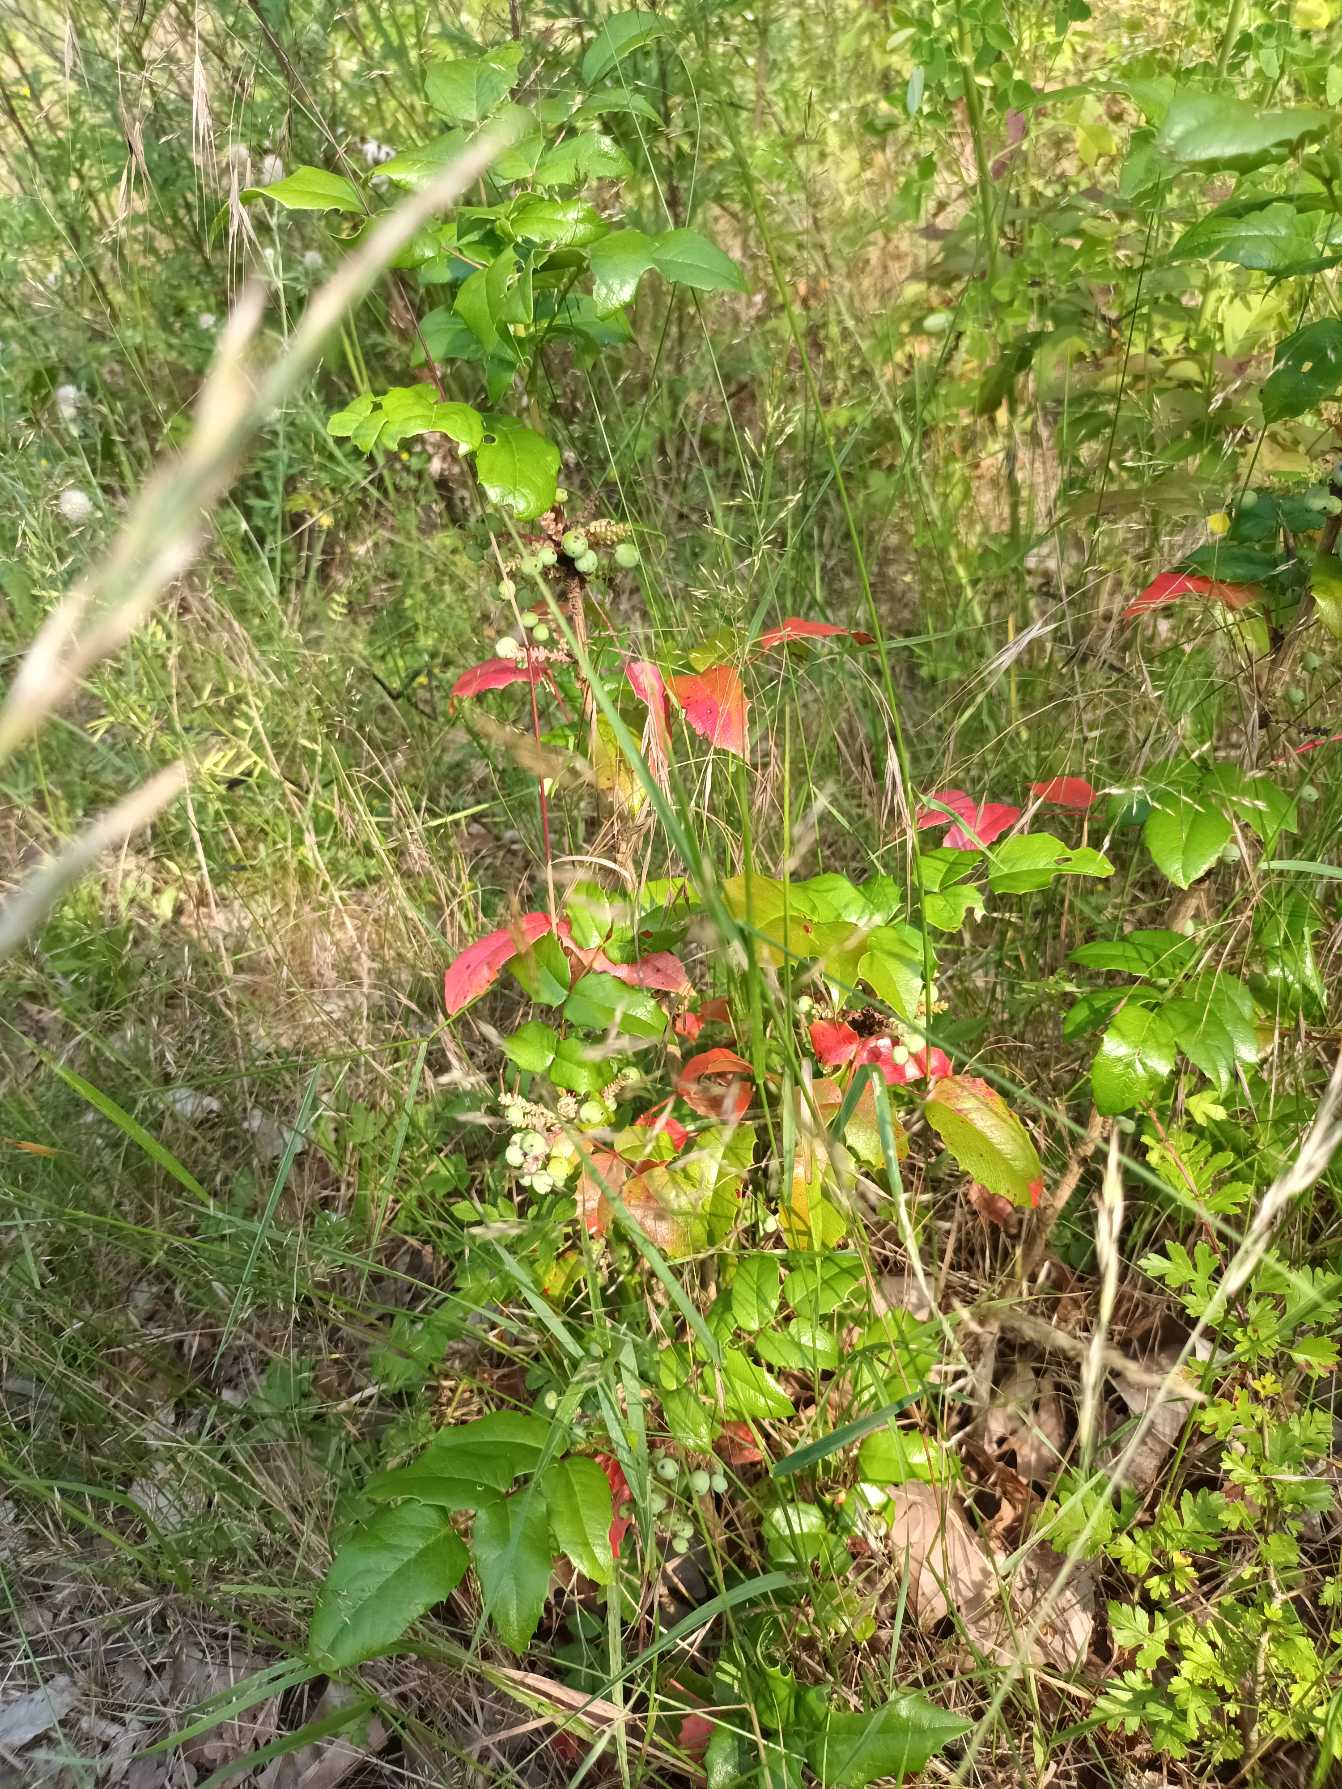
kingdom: Plantae
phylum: Tracheophyta
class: Magnoliopsida
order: Ranunculales
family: Berberidaceae
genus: Mahonia
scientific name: Mahonia aquifolium
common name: Almindelig mahonie
